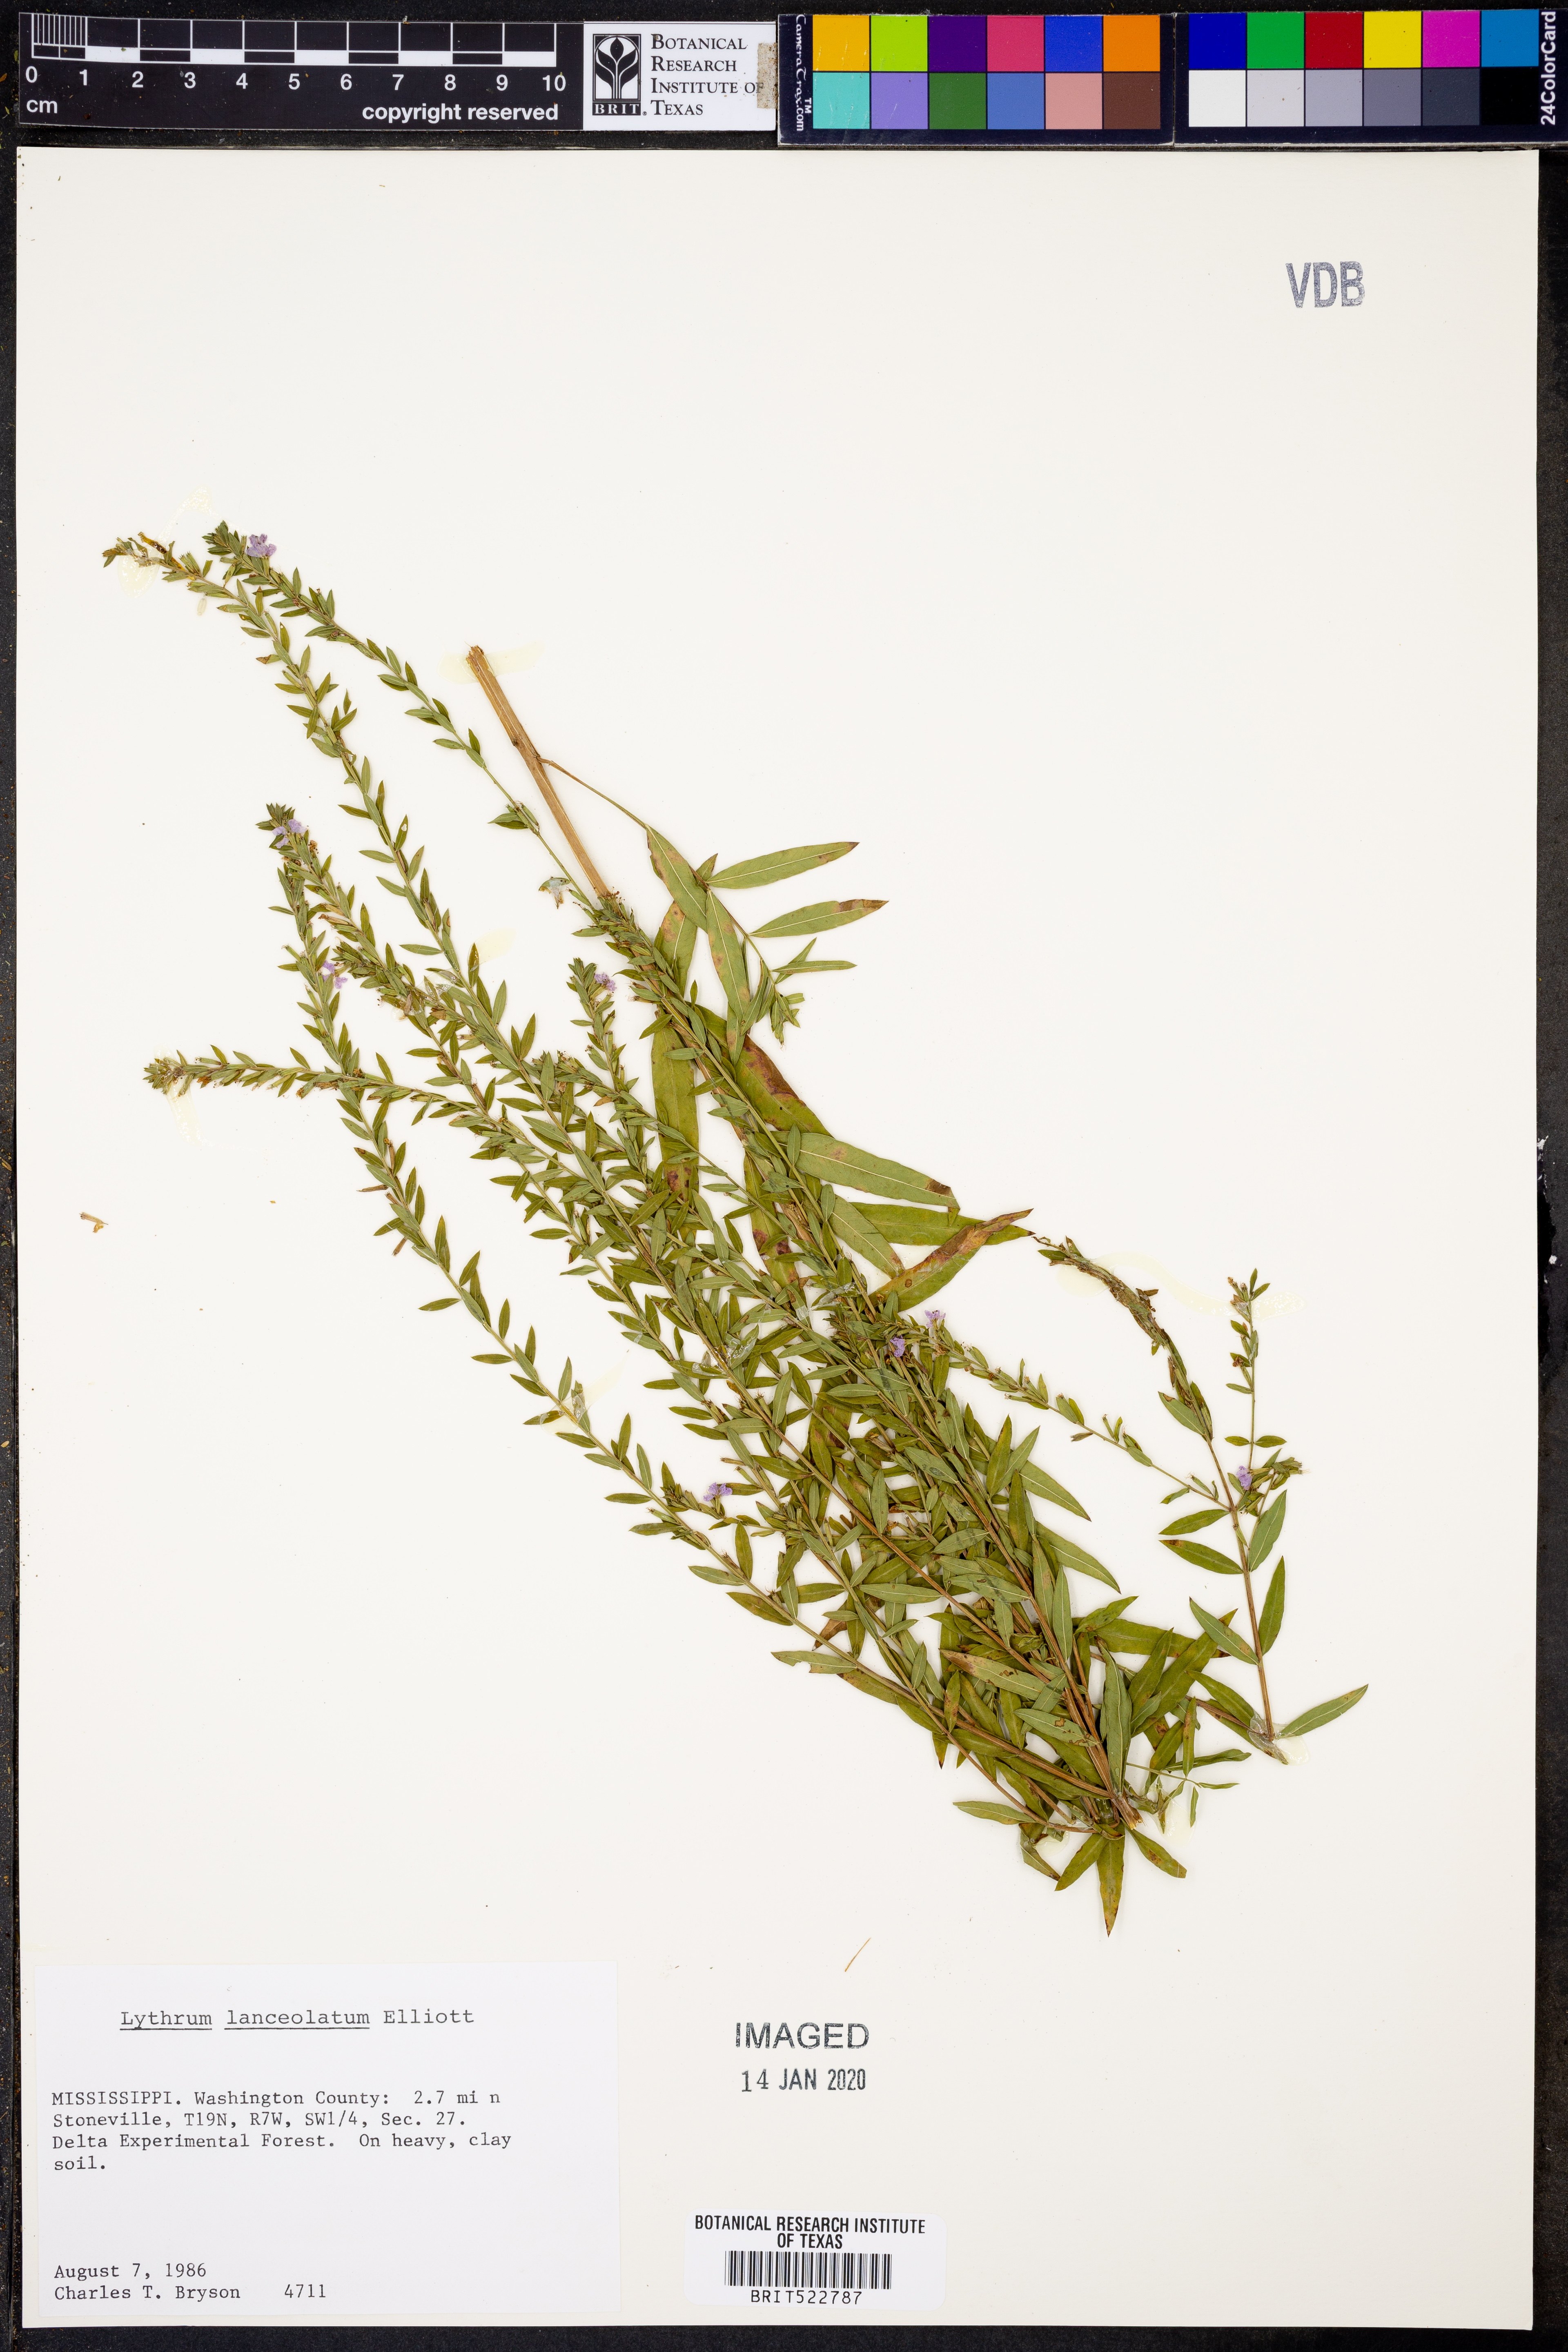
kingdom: Plantae
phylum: Tracheophyta
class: Magnoliopsida
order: Myrtales
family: Lythraceae
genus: Lythrum
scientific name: Lythrum alatum
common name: Winged loosestrife
